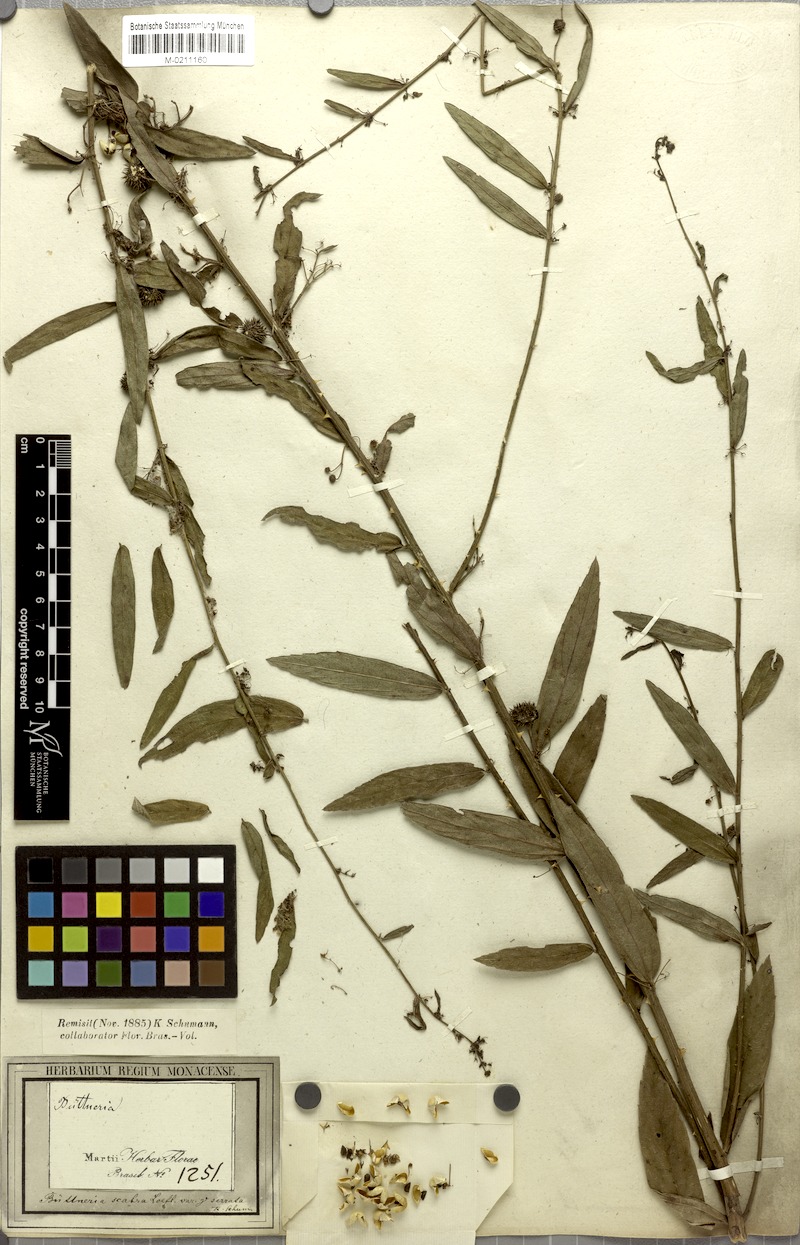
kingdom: Plantae
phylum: Tracheophyta
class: Magnoliopsida
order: Malvales
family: Malvaceae
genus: Byttneria
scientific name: Byttneria scabra
